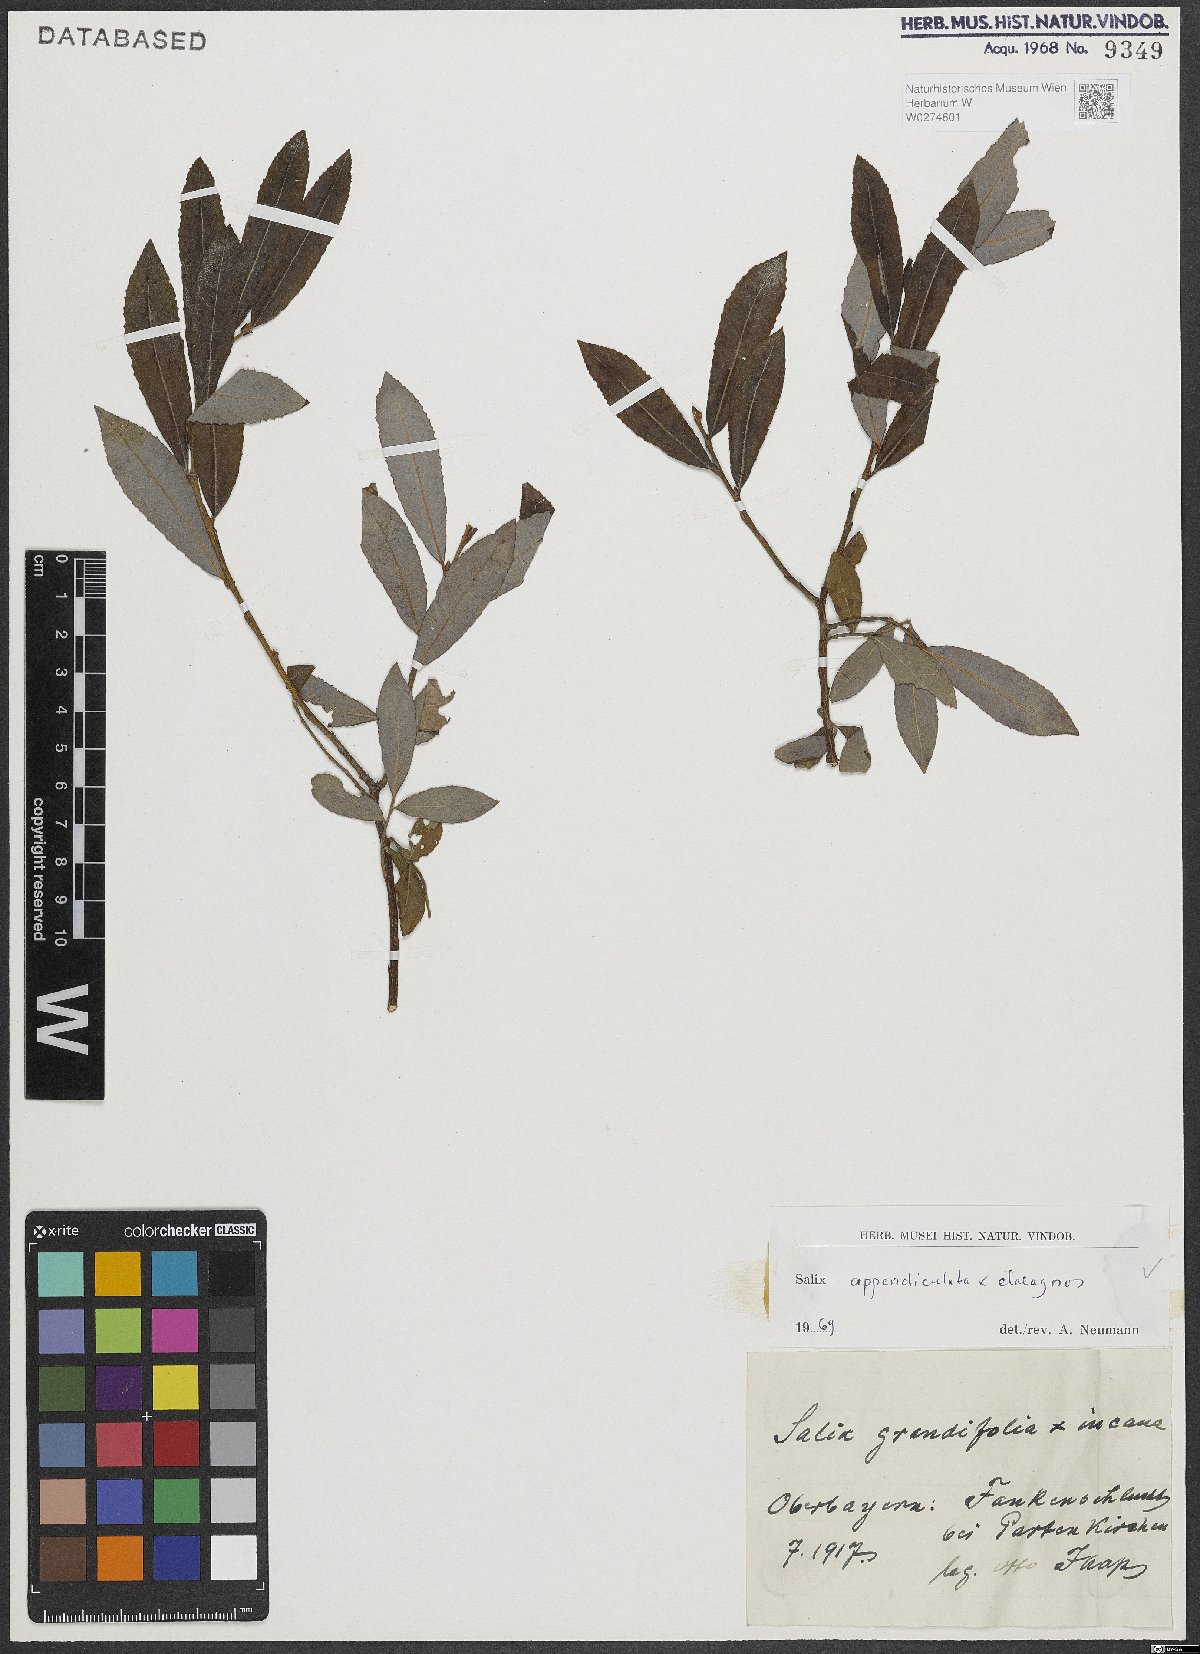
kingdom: Plantae
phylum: Tracheophyta
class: Magnoliopsida
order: Malpighiales
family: Salicaceae
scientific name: Salicaceae
